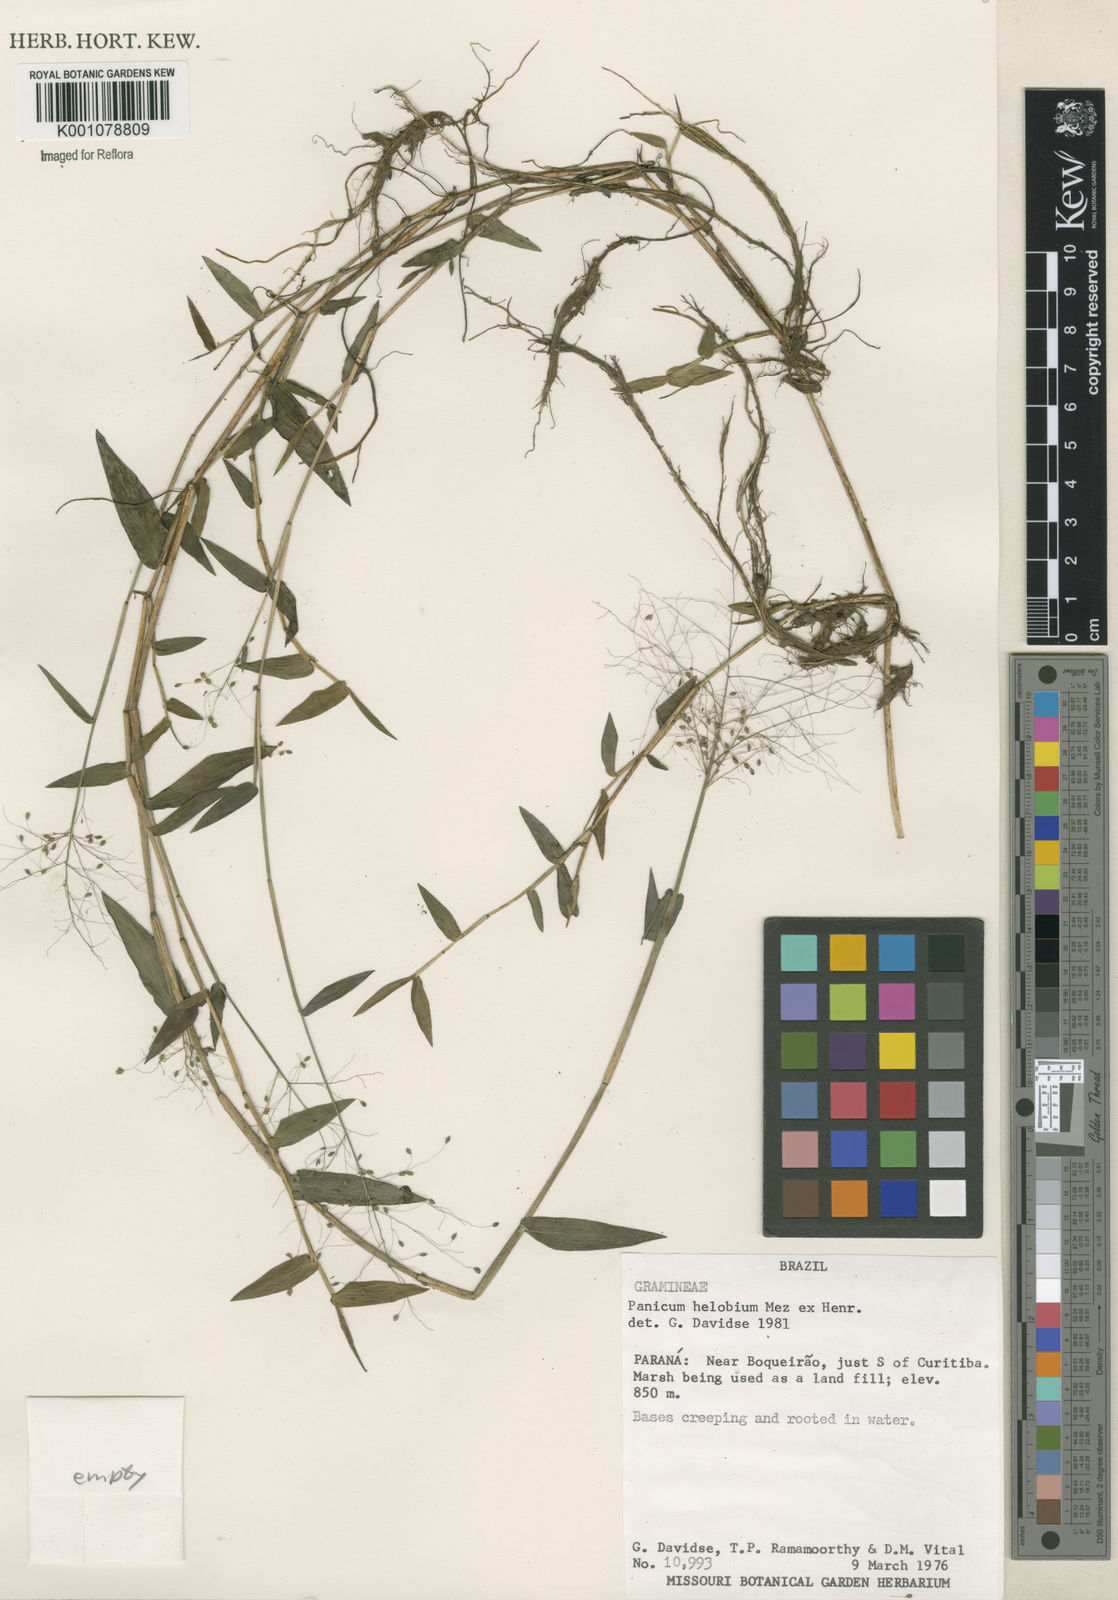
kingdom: Plantae
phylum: Tracheophyta
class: Liliopsida
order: Poales
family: Poaceae
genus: Trichanthecium
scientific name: Trichanthecium schwackeanum
